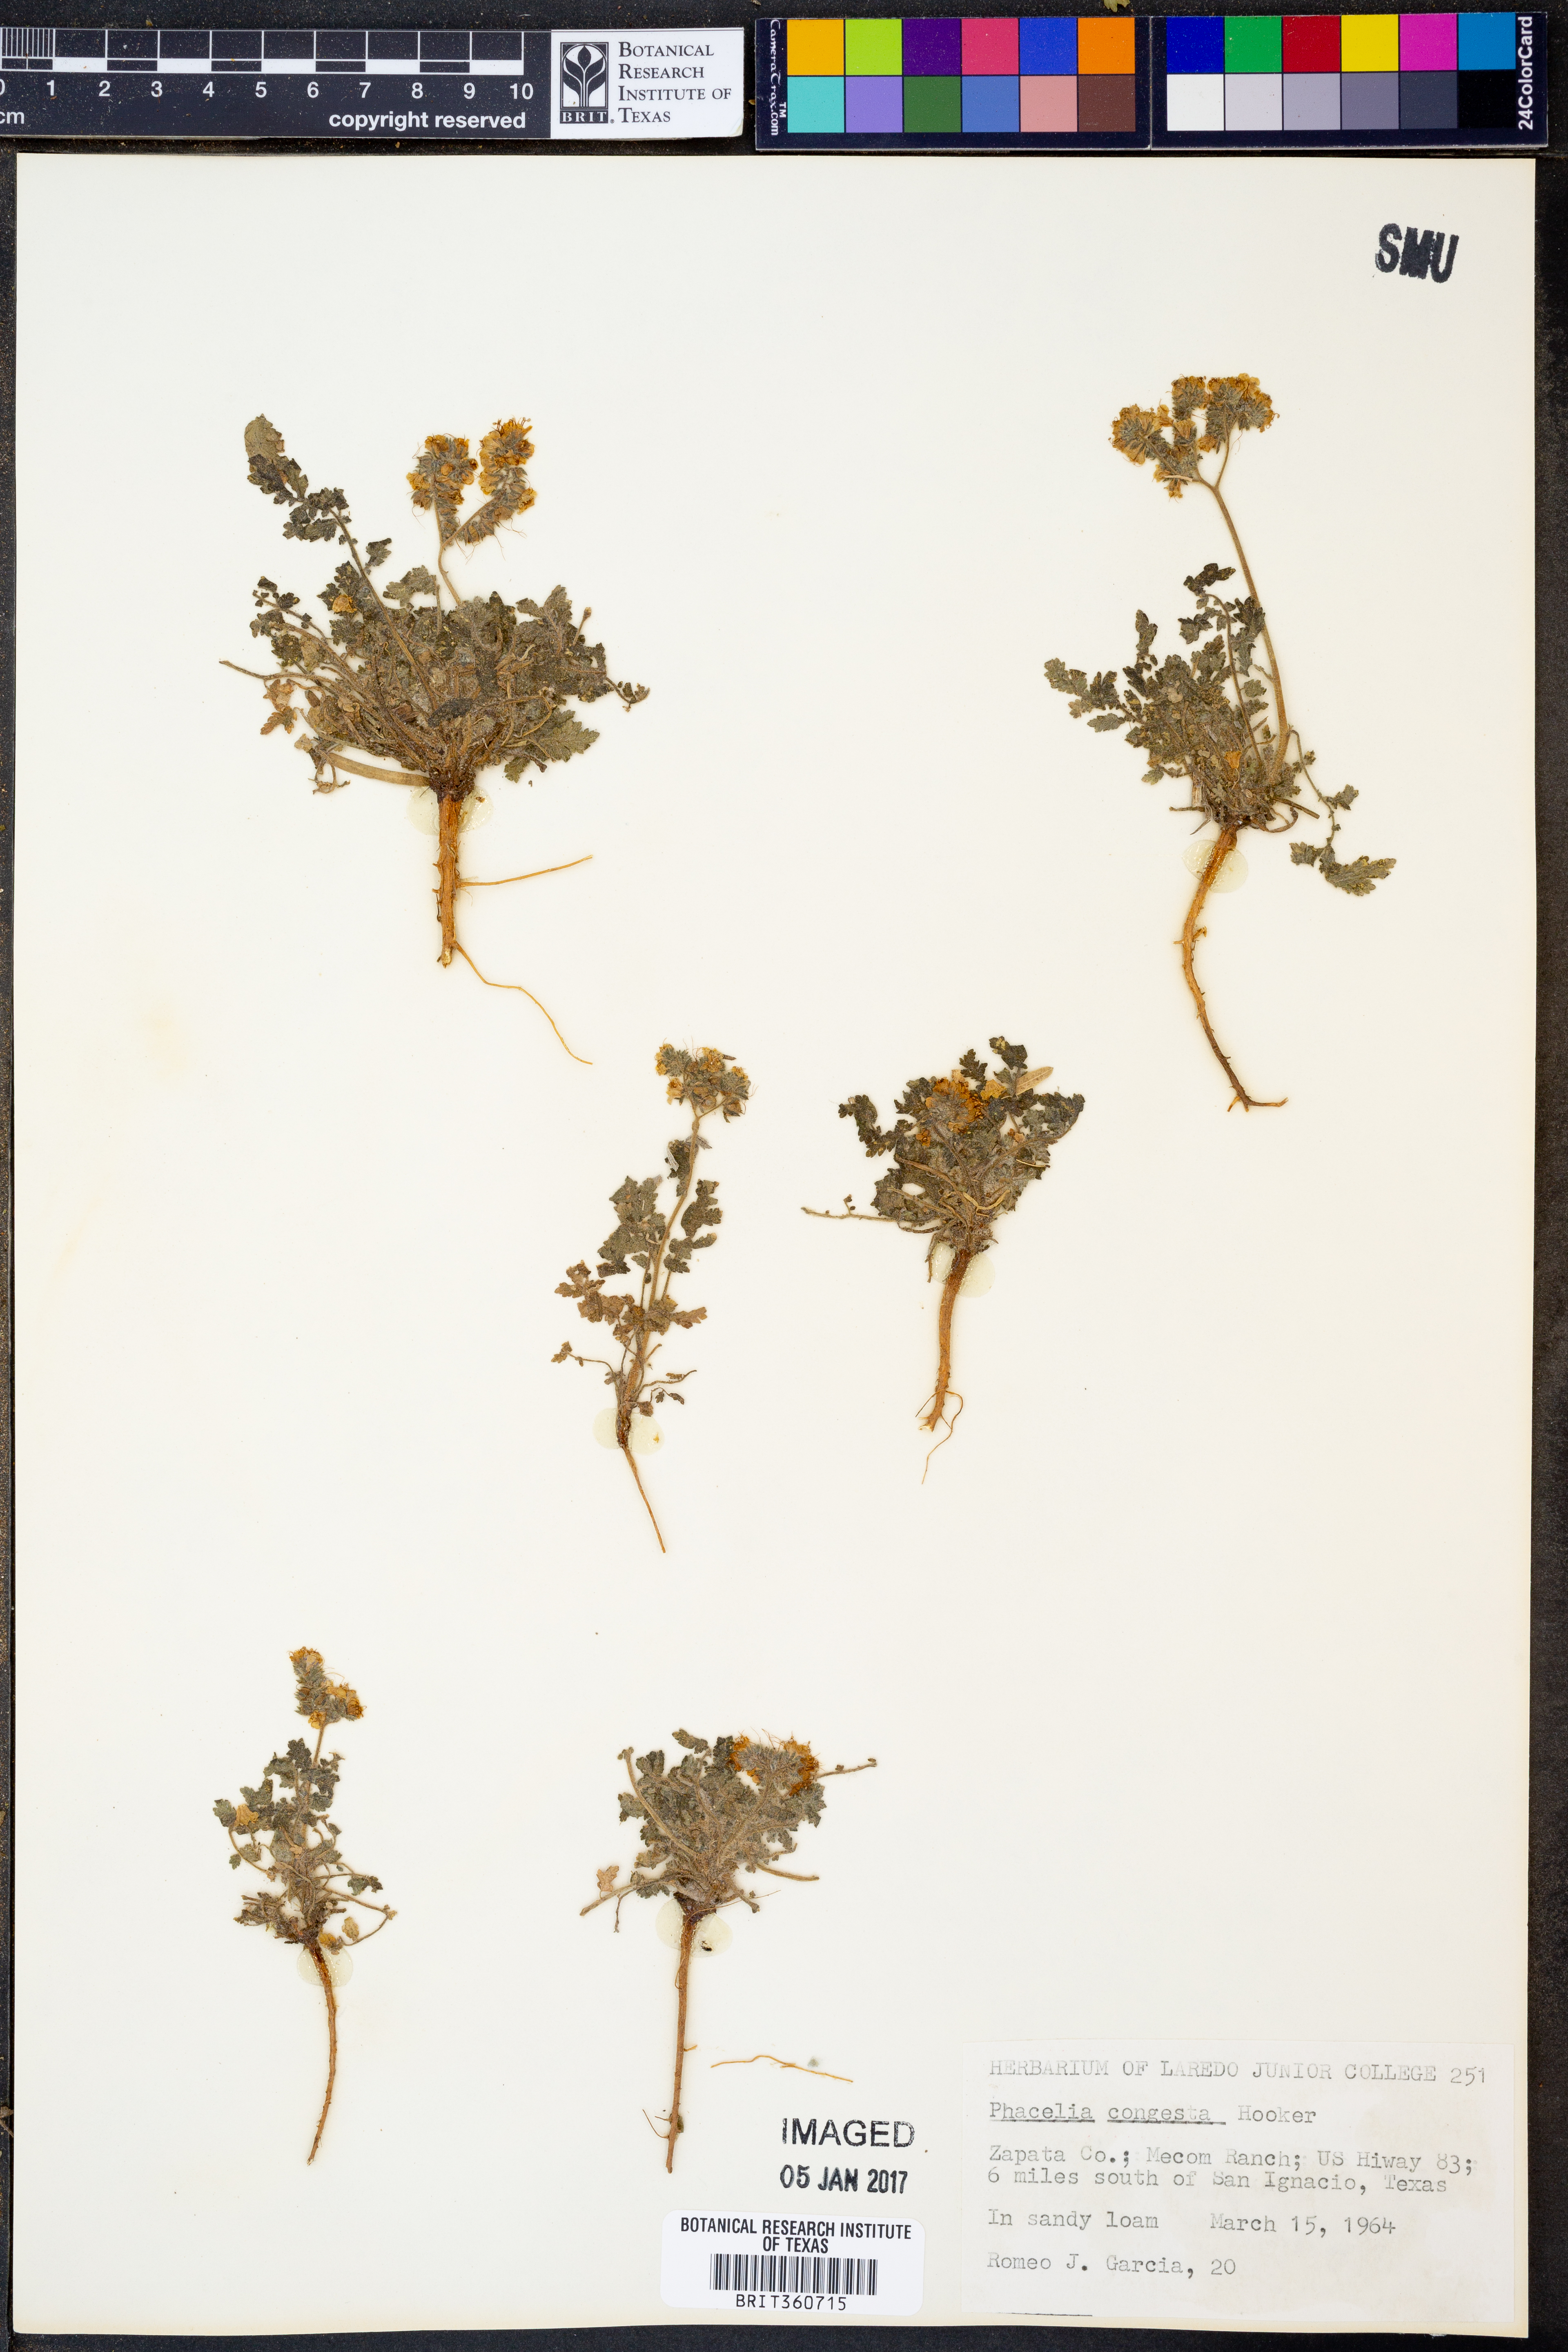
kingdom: Plantae
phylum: Tracheophyta
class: Magnoliopsida
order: Boraginales
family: Hydrophyllaceae
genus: Phacelia
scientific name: Phacelia congesta
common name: Blue curls
